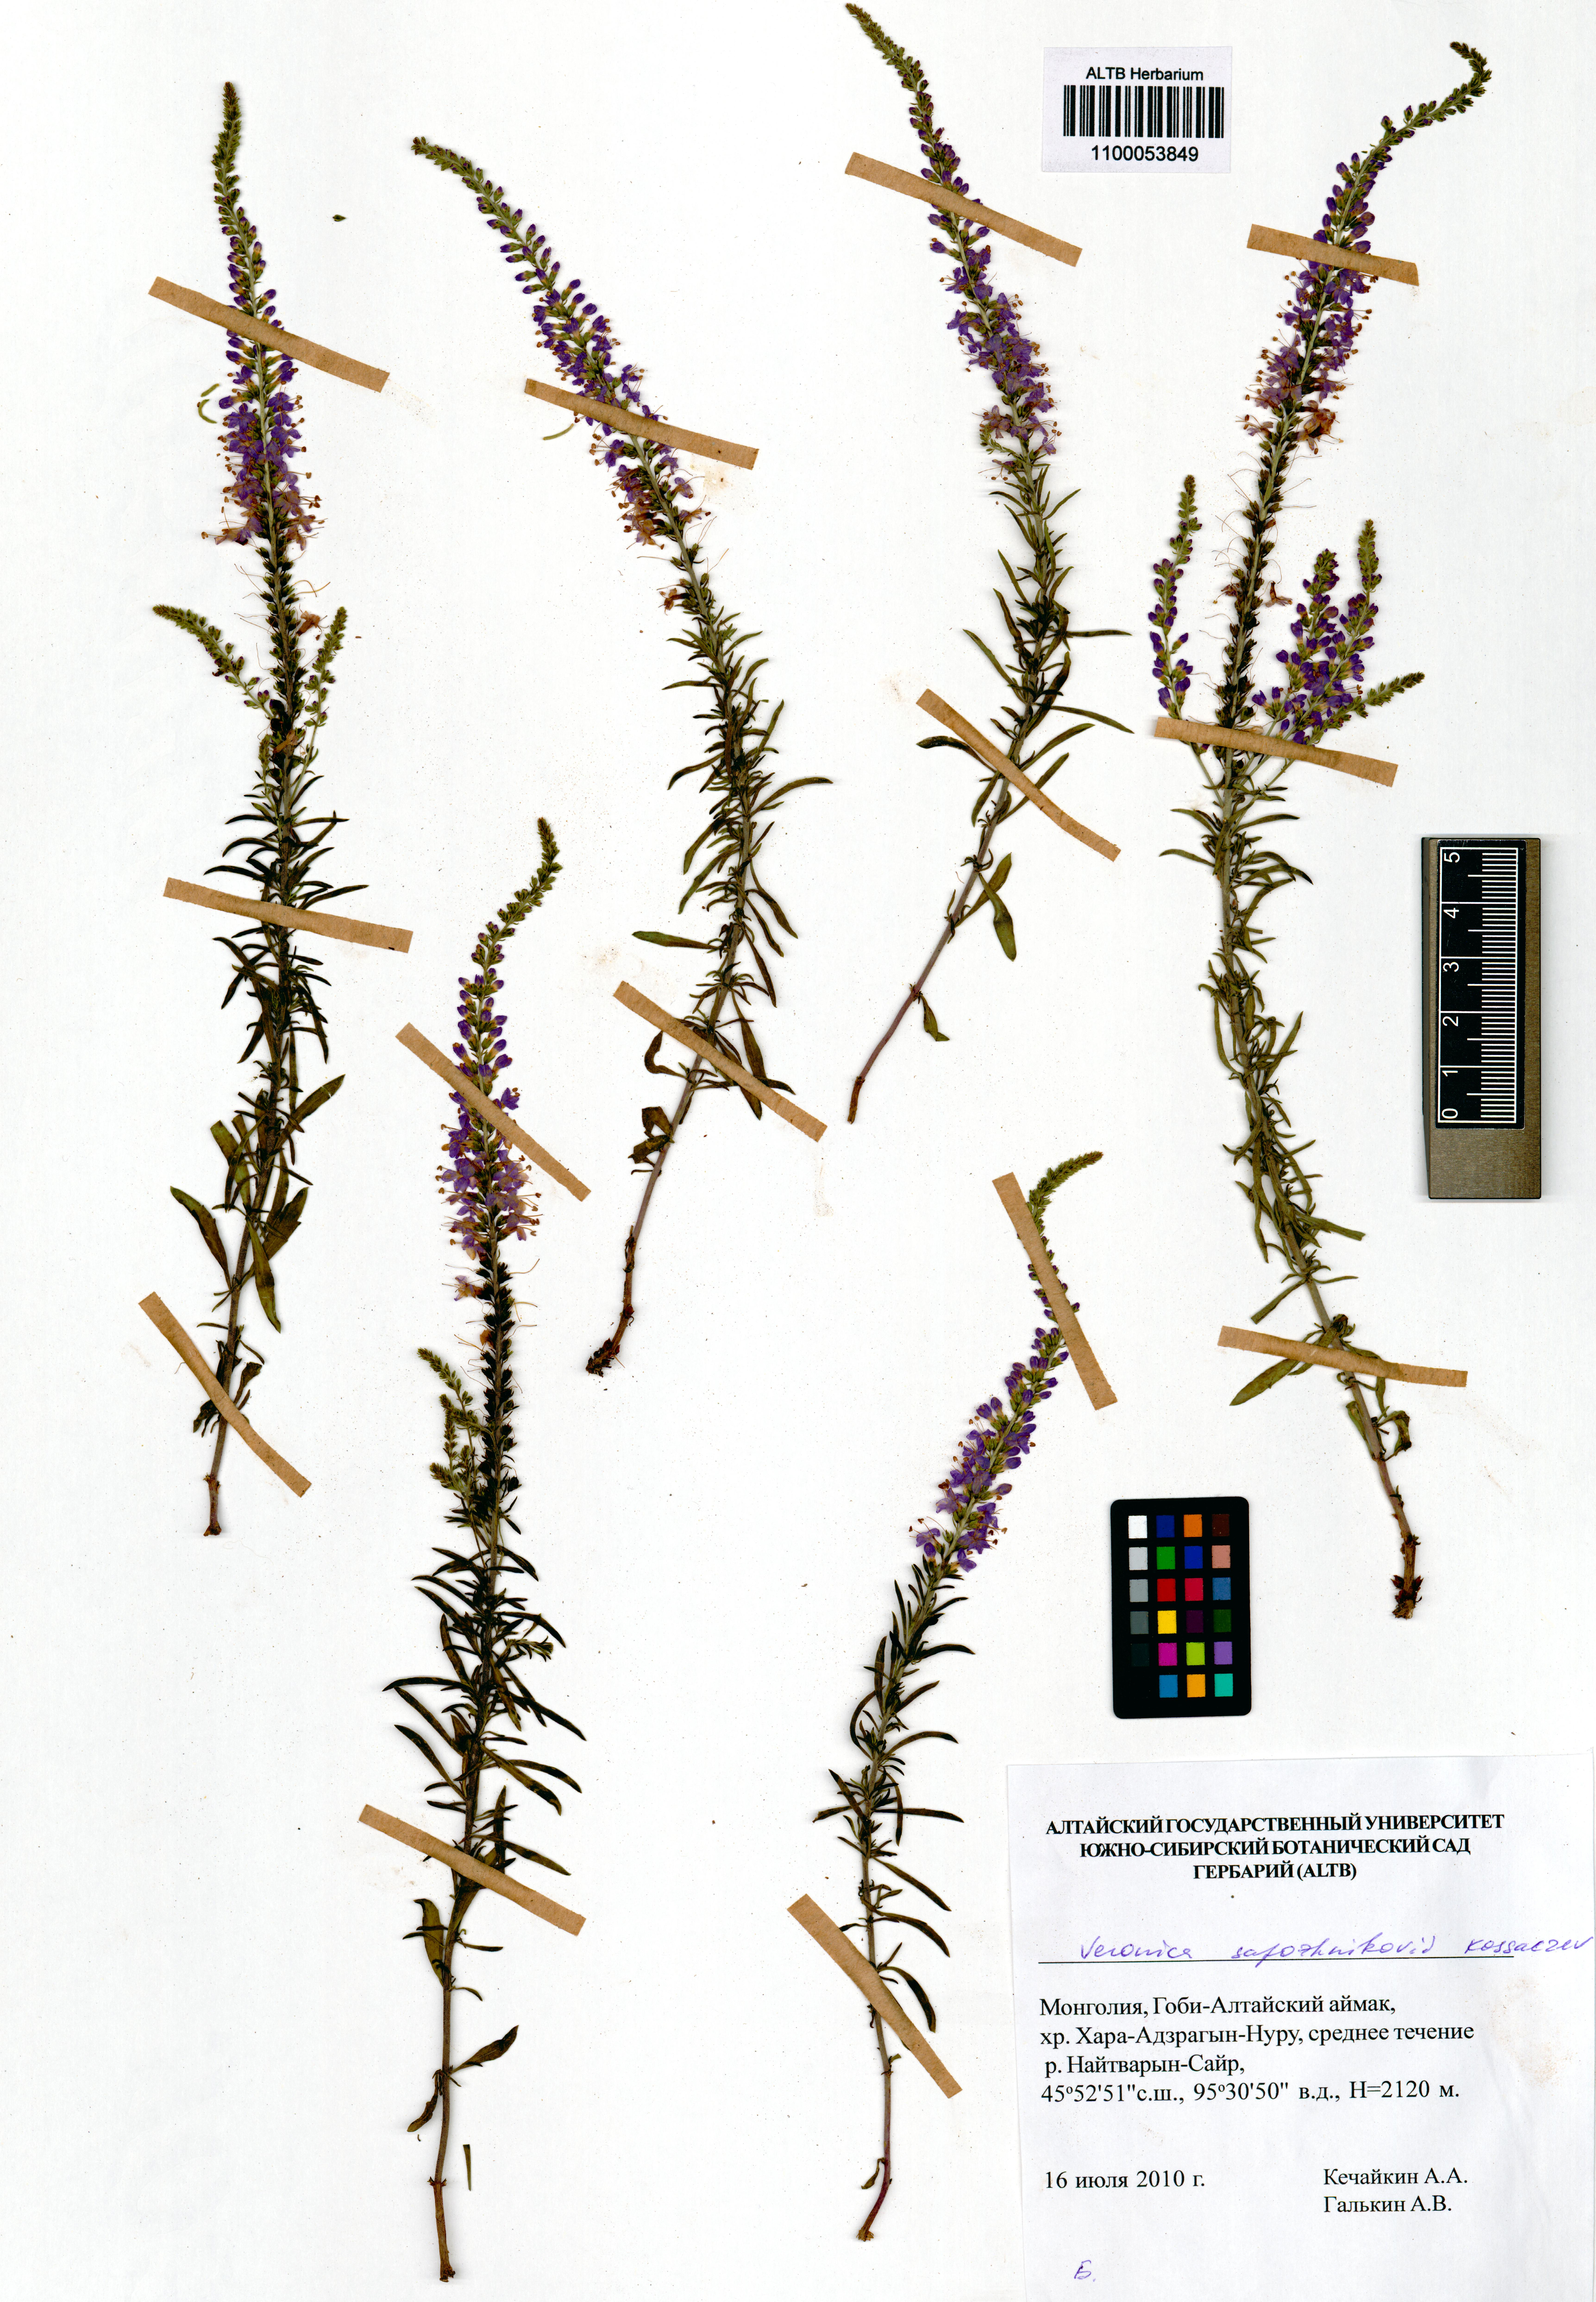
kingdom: Plantae
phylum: Tracheophyta
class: Magnoliopsida
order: Lamiales
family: Plantaginaceae
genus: Veronica
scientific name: Veronica sapozhnikovii
